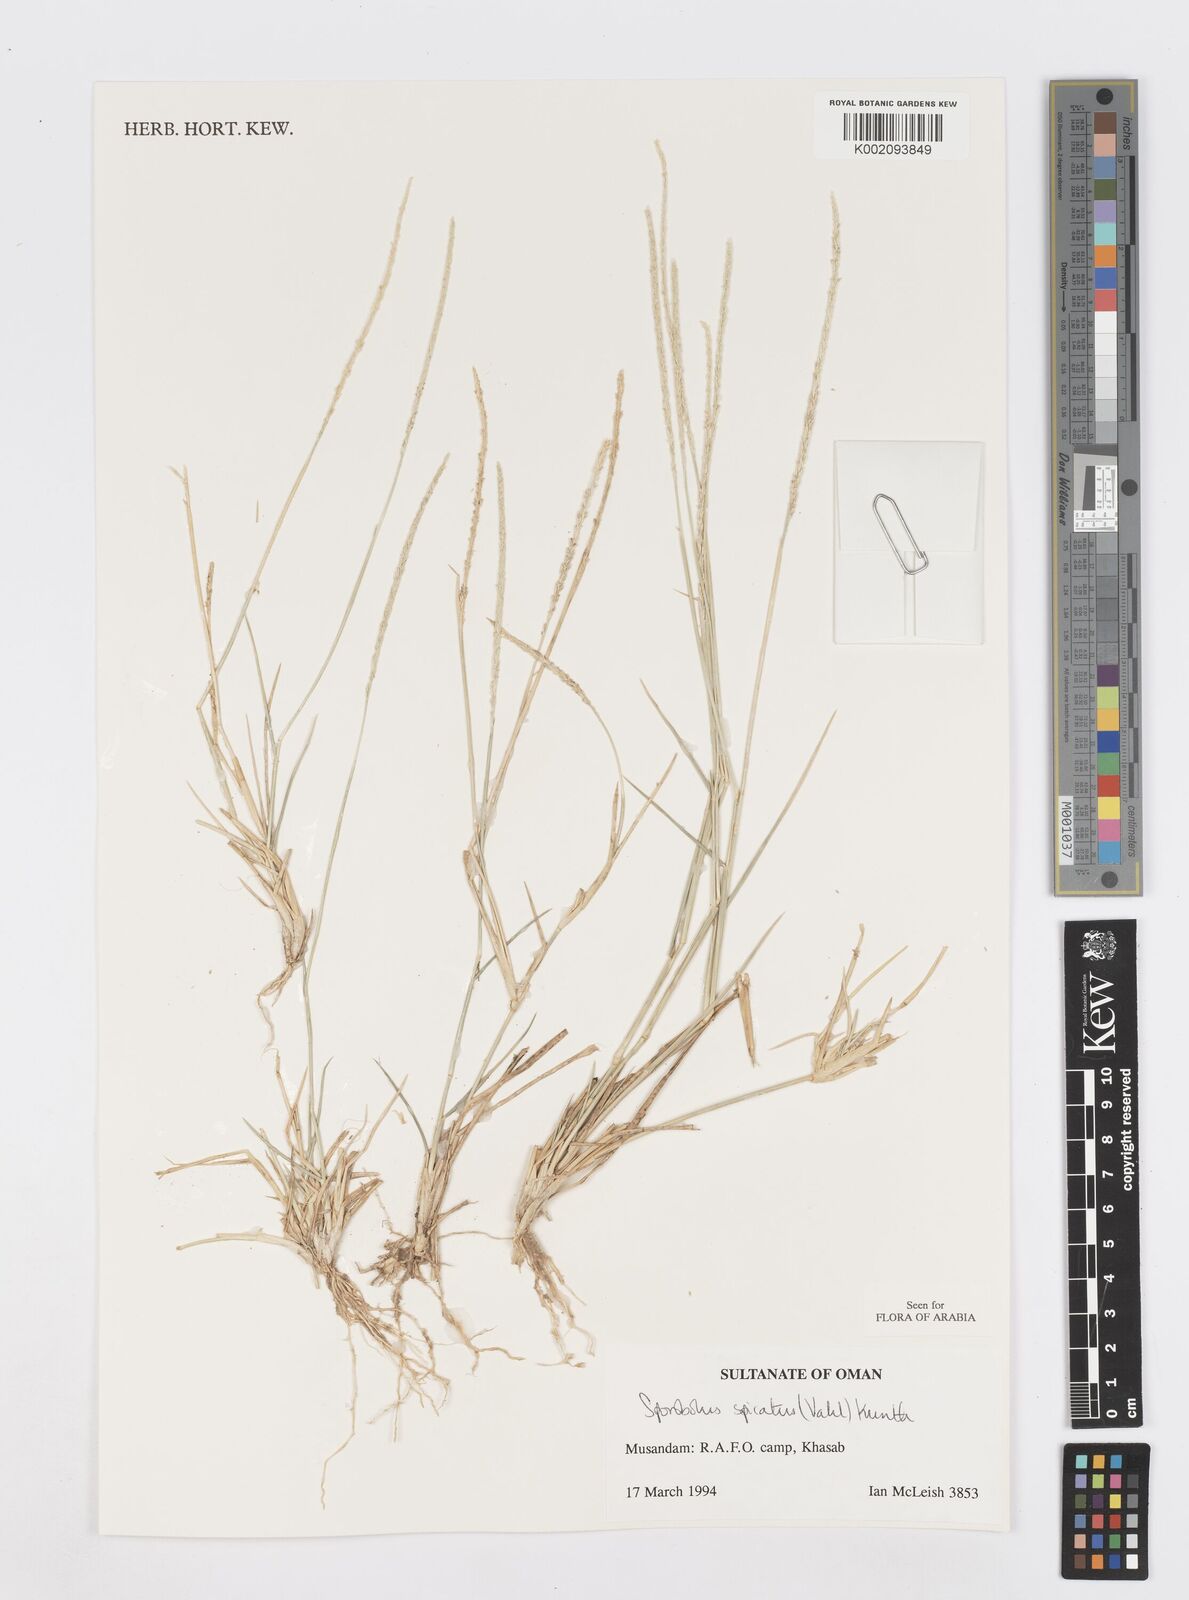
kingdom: Plantae
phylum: Tracheophyta
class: Liliopsida
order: Poales
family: Poaceae
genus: Sporobolus
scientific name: Sporobolus spicatus
